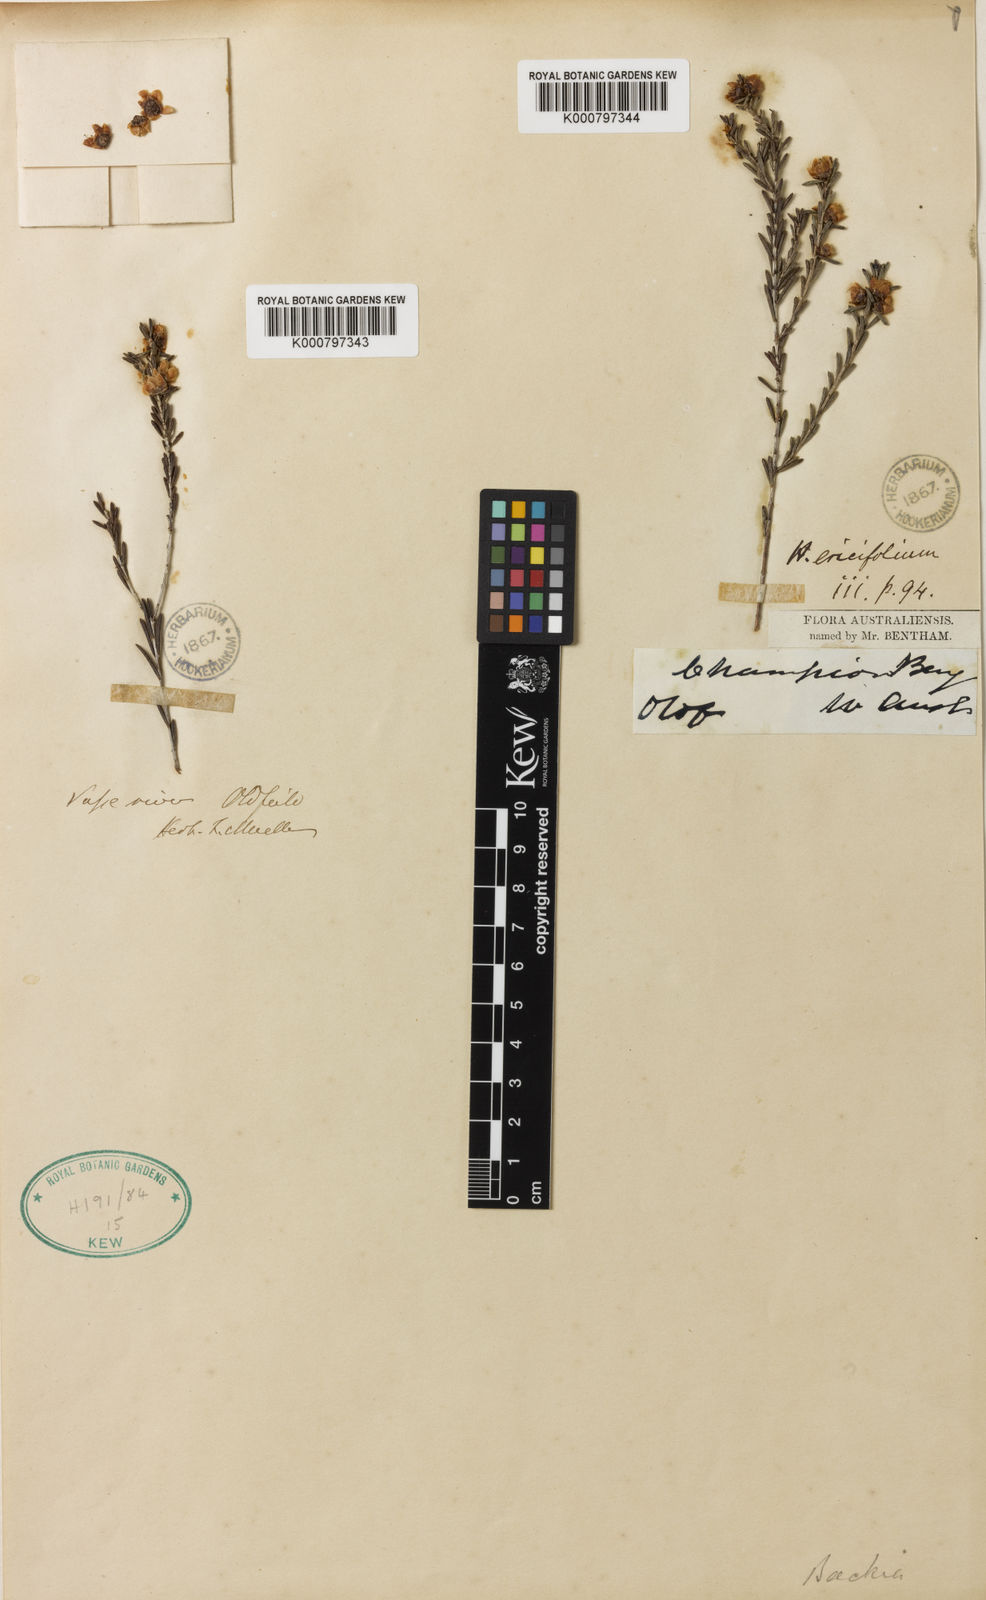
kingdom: Plantae
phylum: Tracheophyta
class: Magnoliopsida
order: Myrtales
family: Myrtaceae
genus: Hypocalymma
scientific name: Hypocalymma ericifolium
